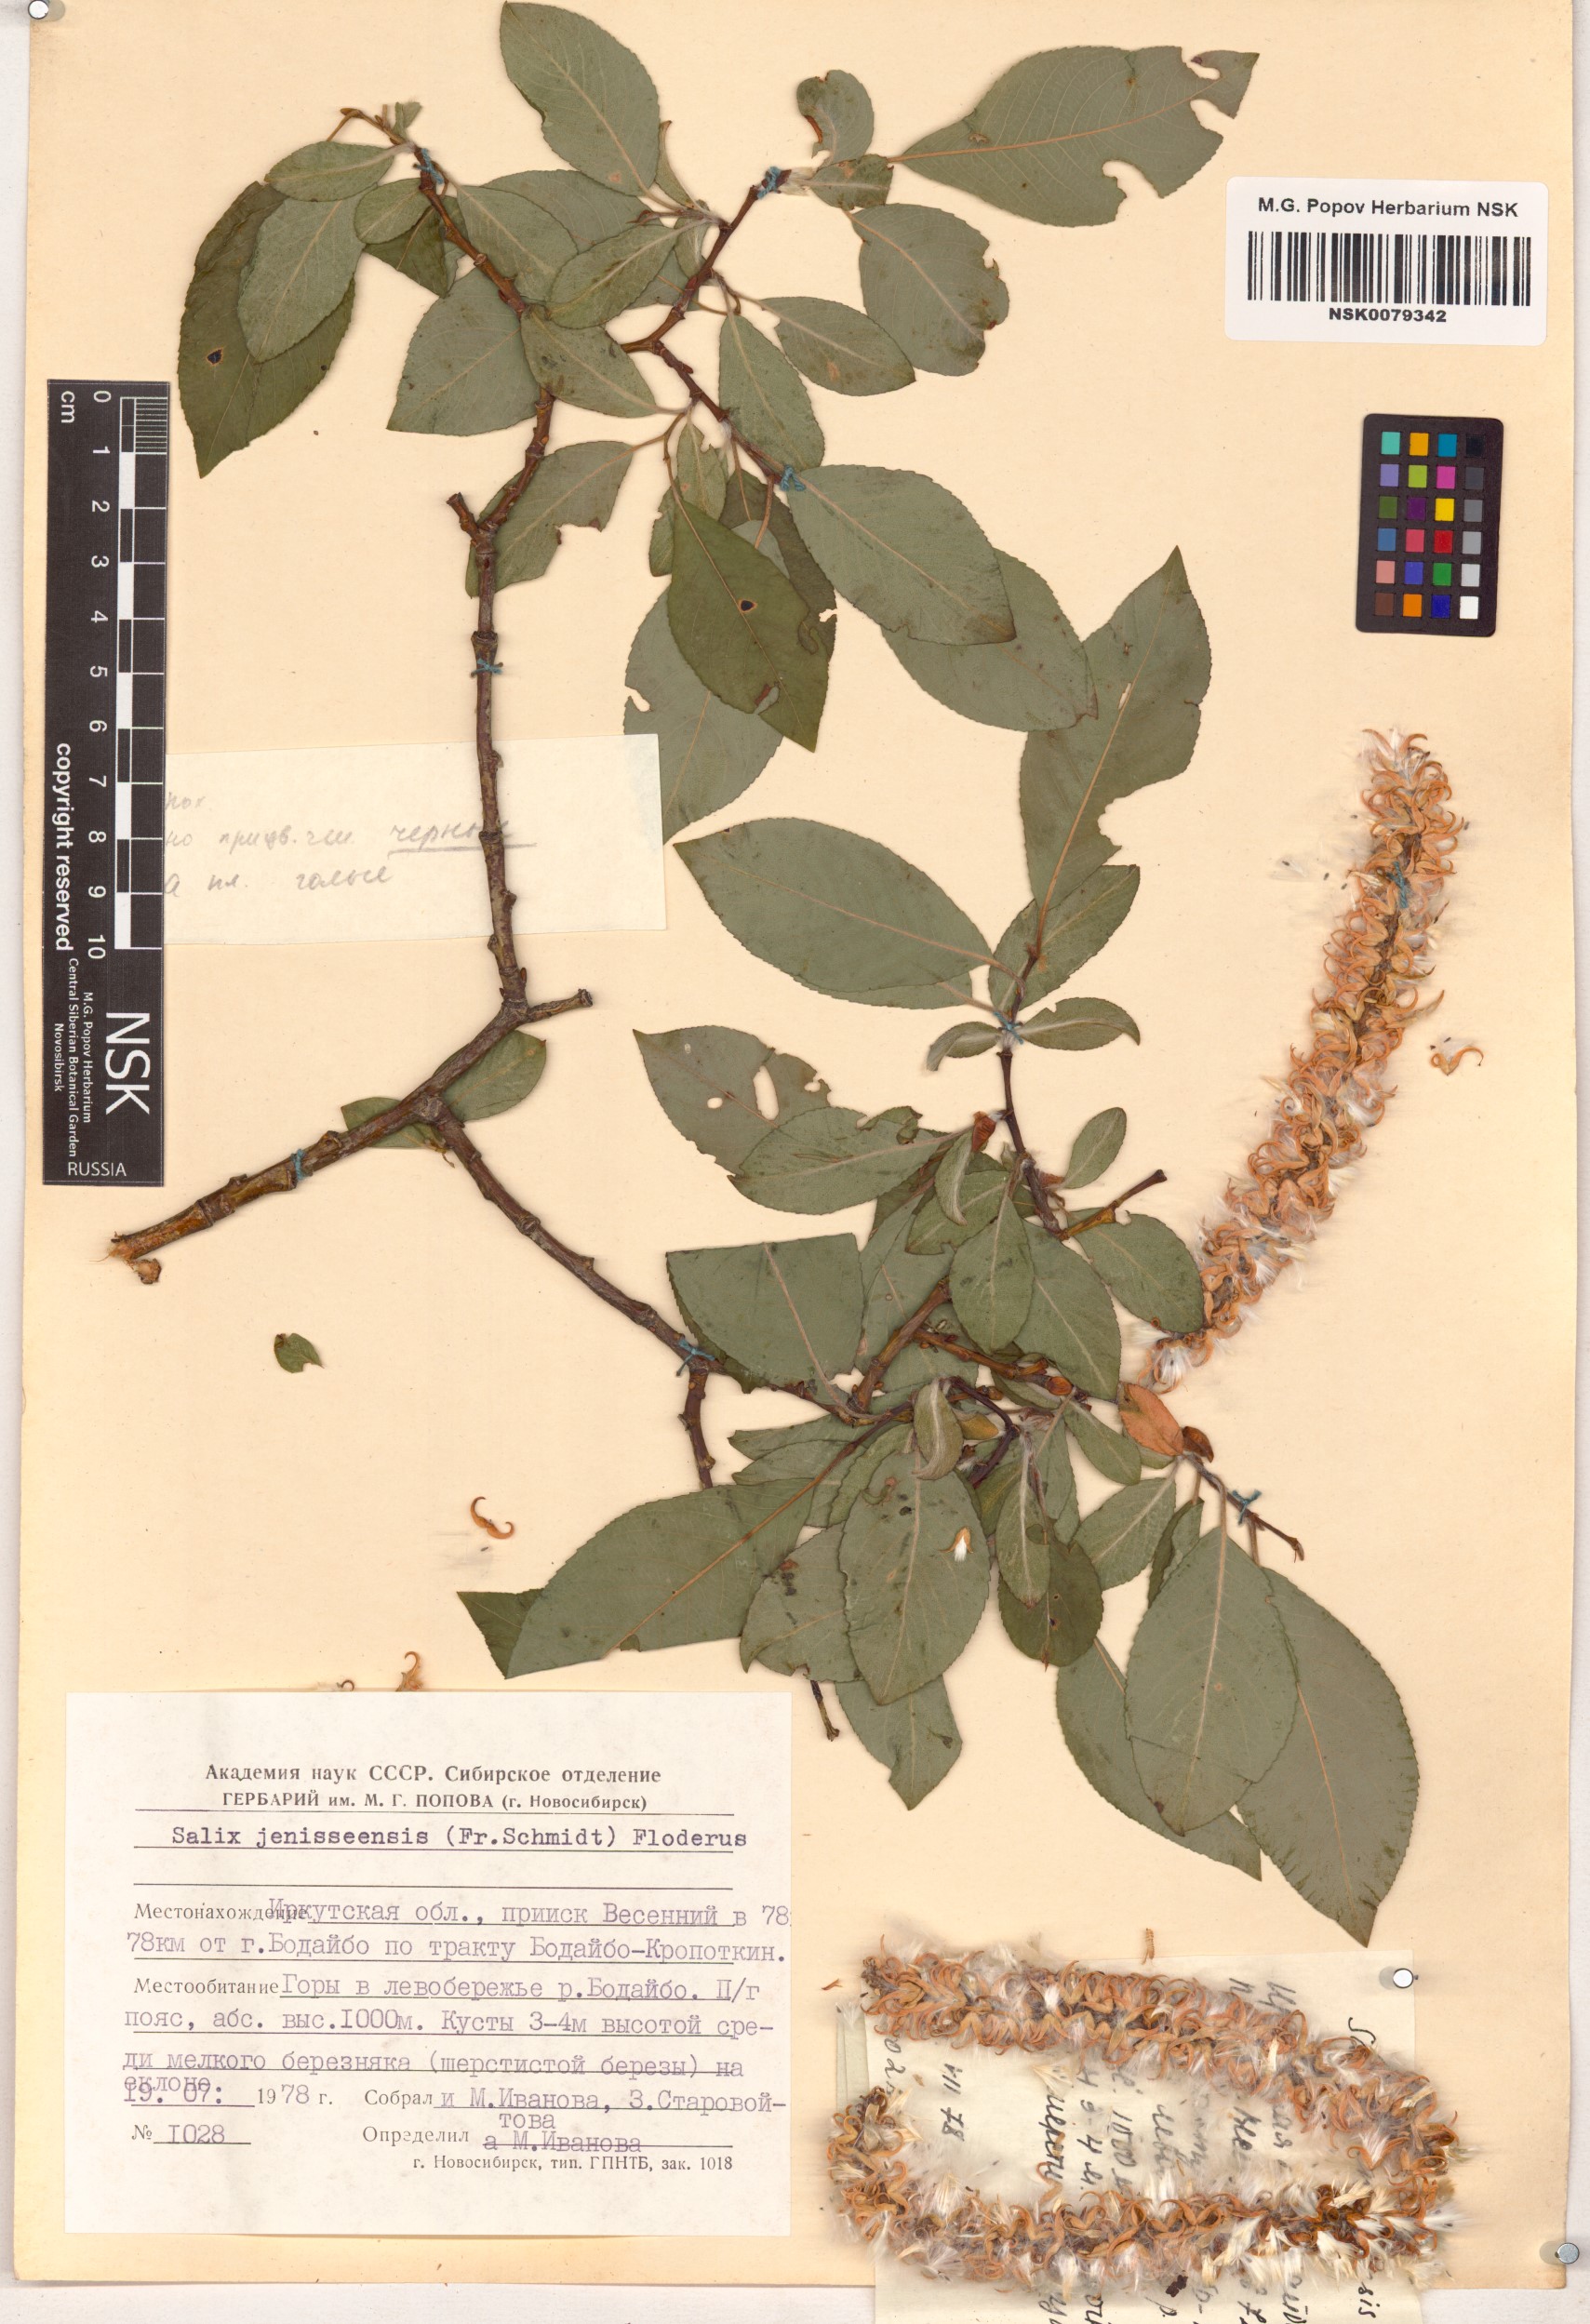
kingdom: Plantae
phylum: Tracheophyta
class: Magnoliopsida
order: Malpighiales
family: Salicaceae
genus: Salix
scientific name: Salix jenisseensis
